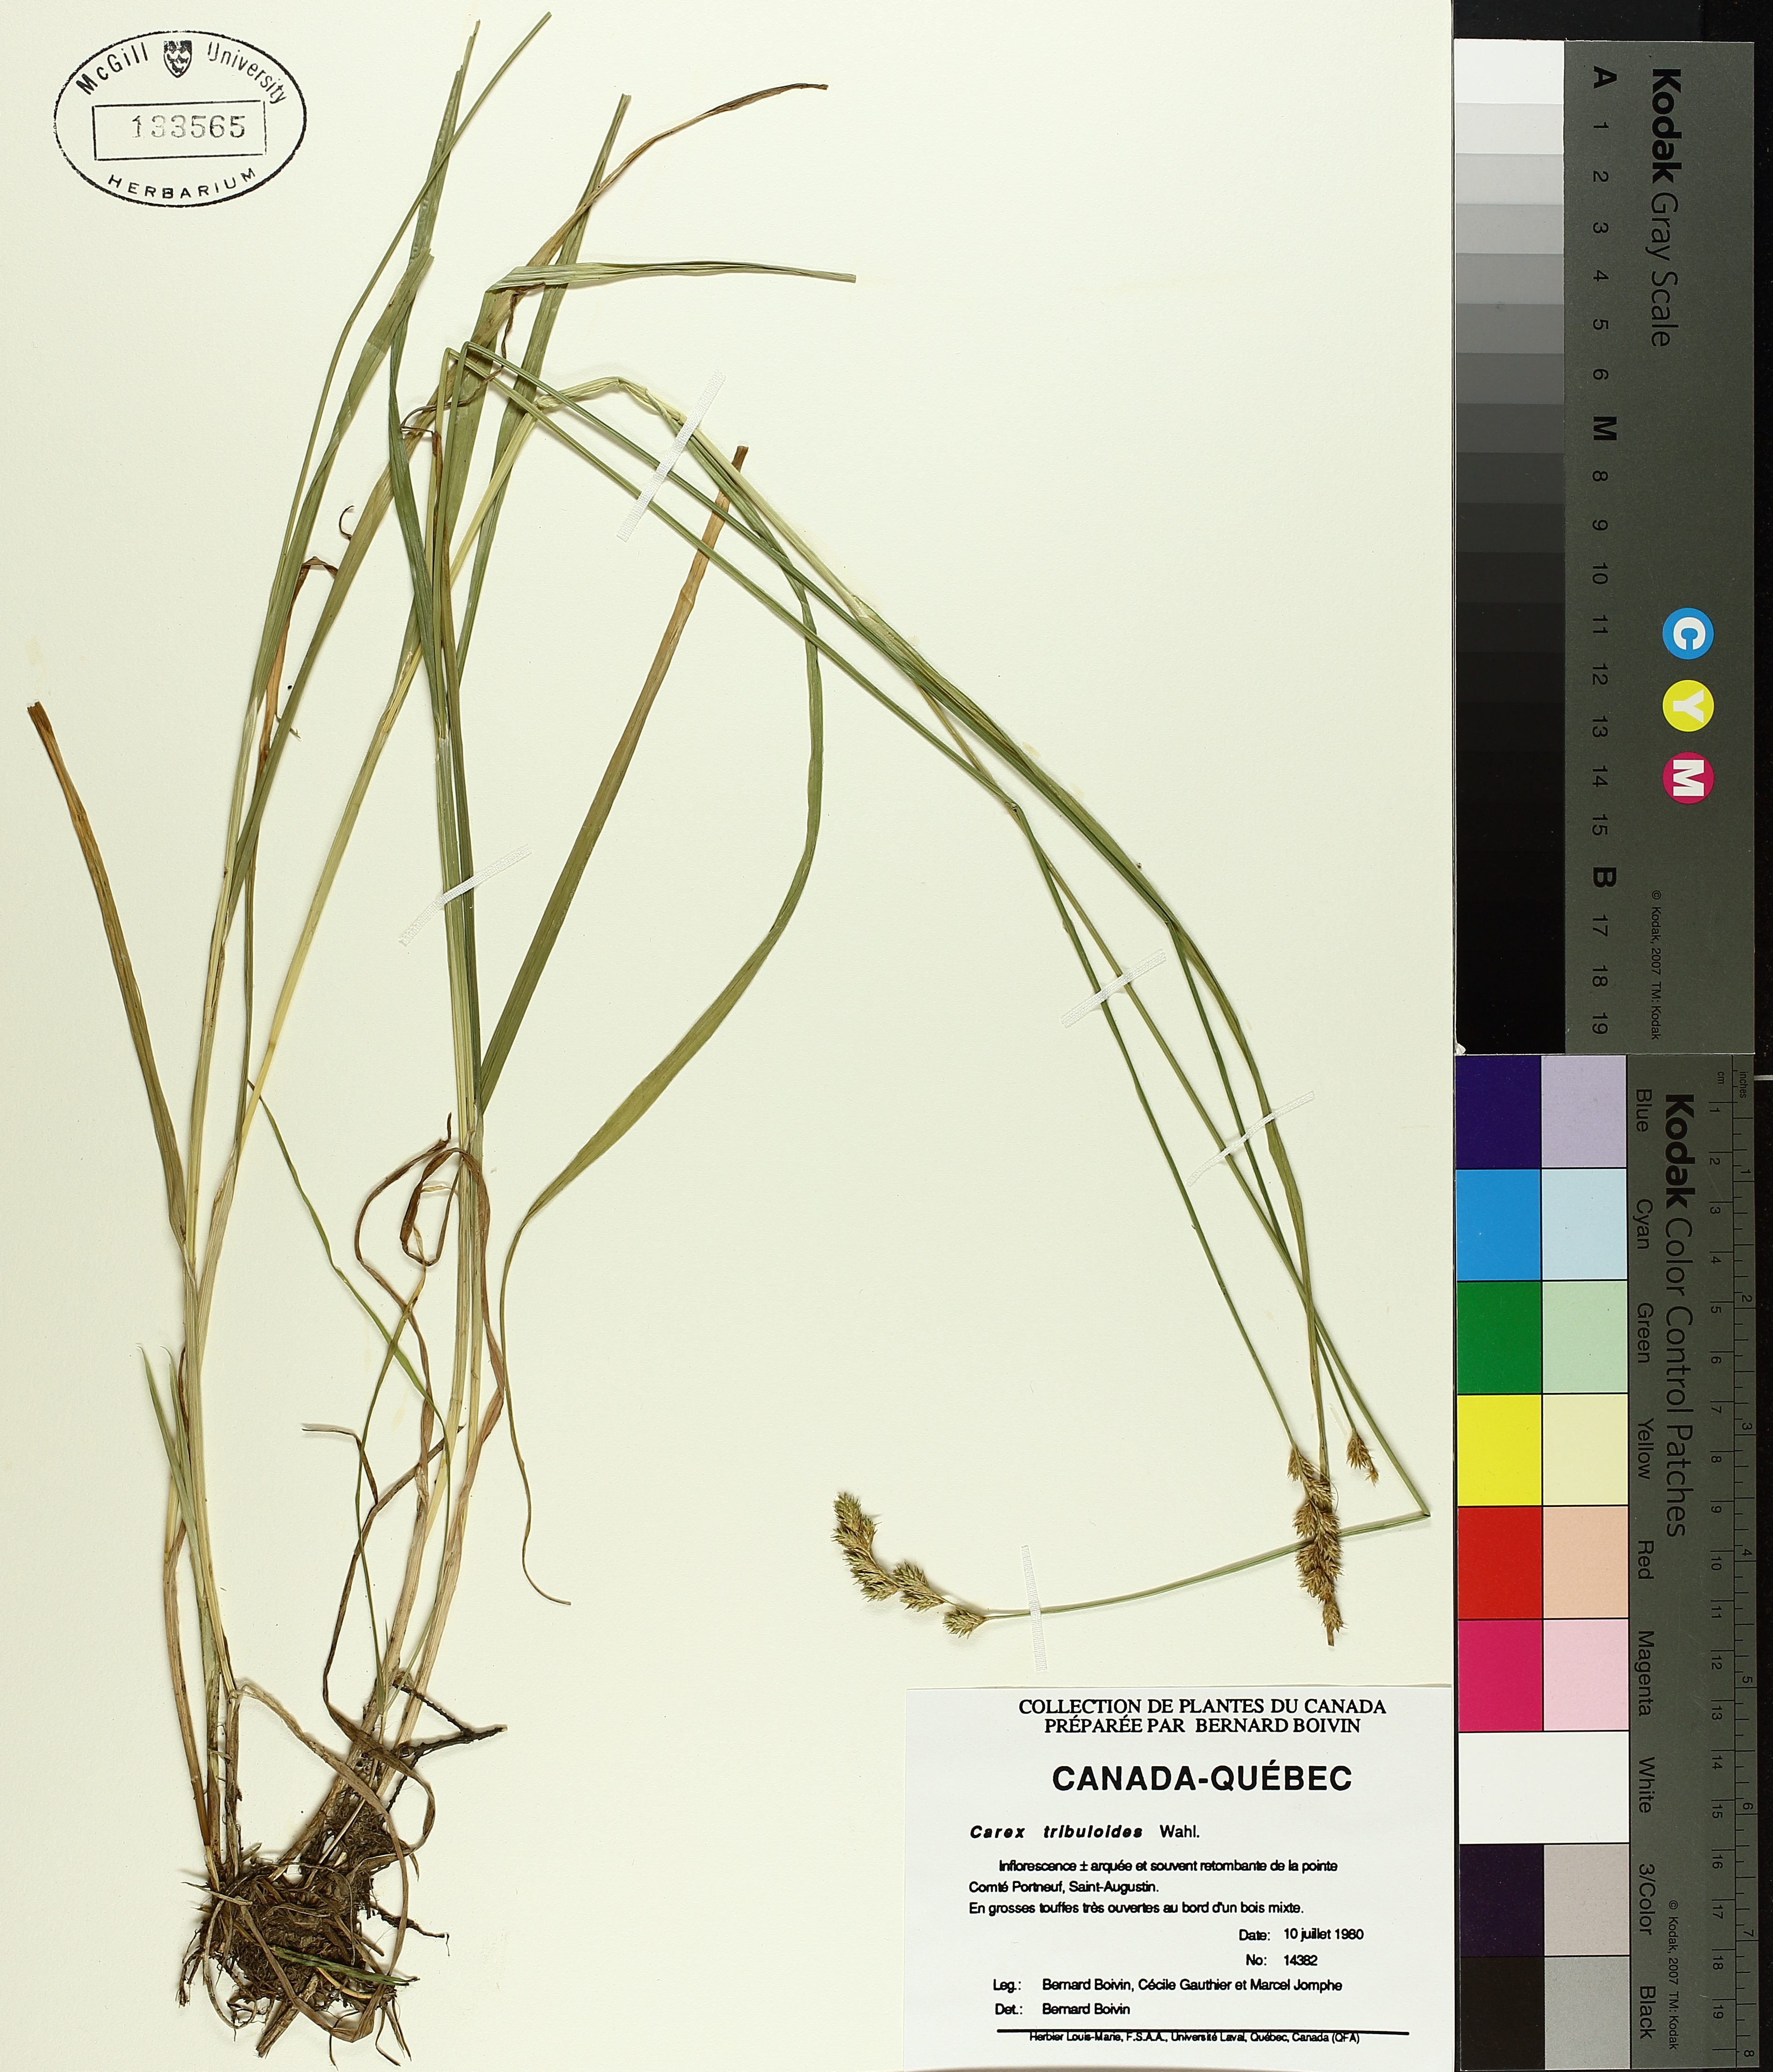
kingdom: Plantae
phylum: Tracheophyta
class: Liliopsida
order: Poales
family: Cyperaceae
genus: Carex
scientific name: Carex tribuloides
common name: Blunt broom sedge
